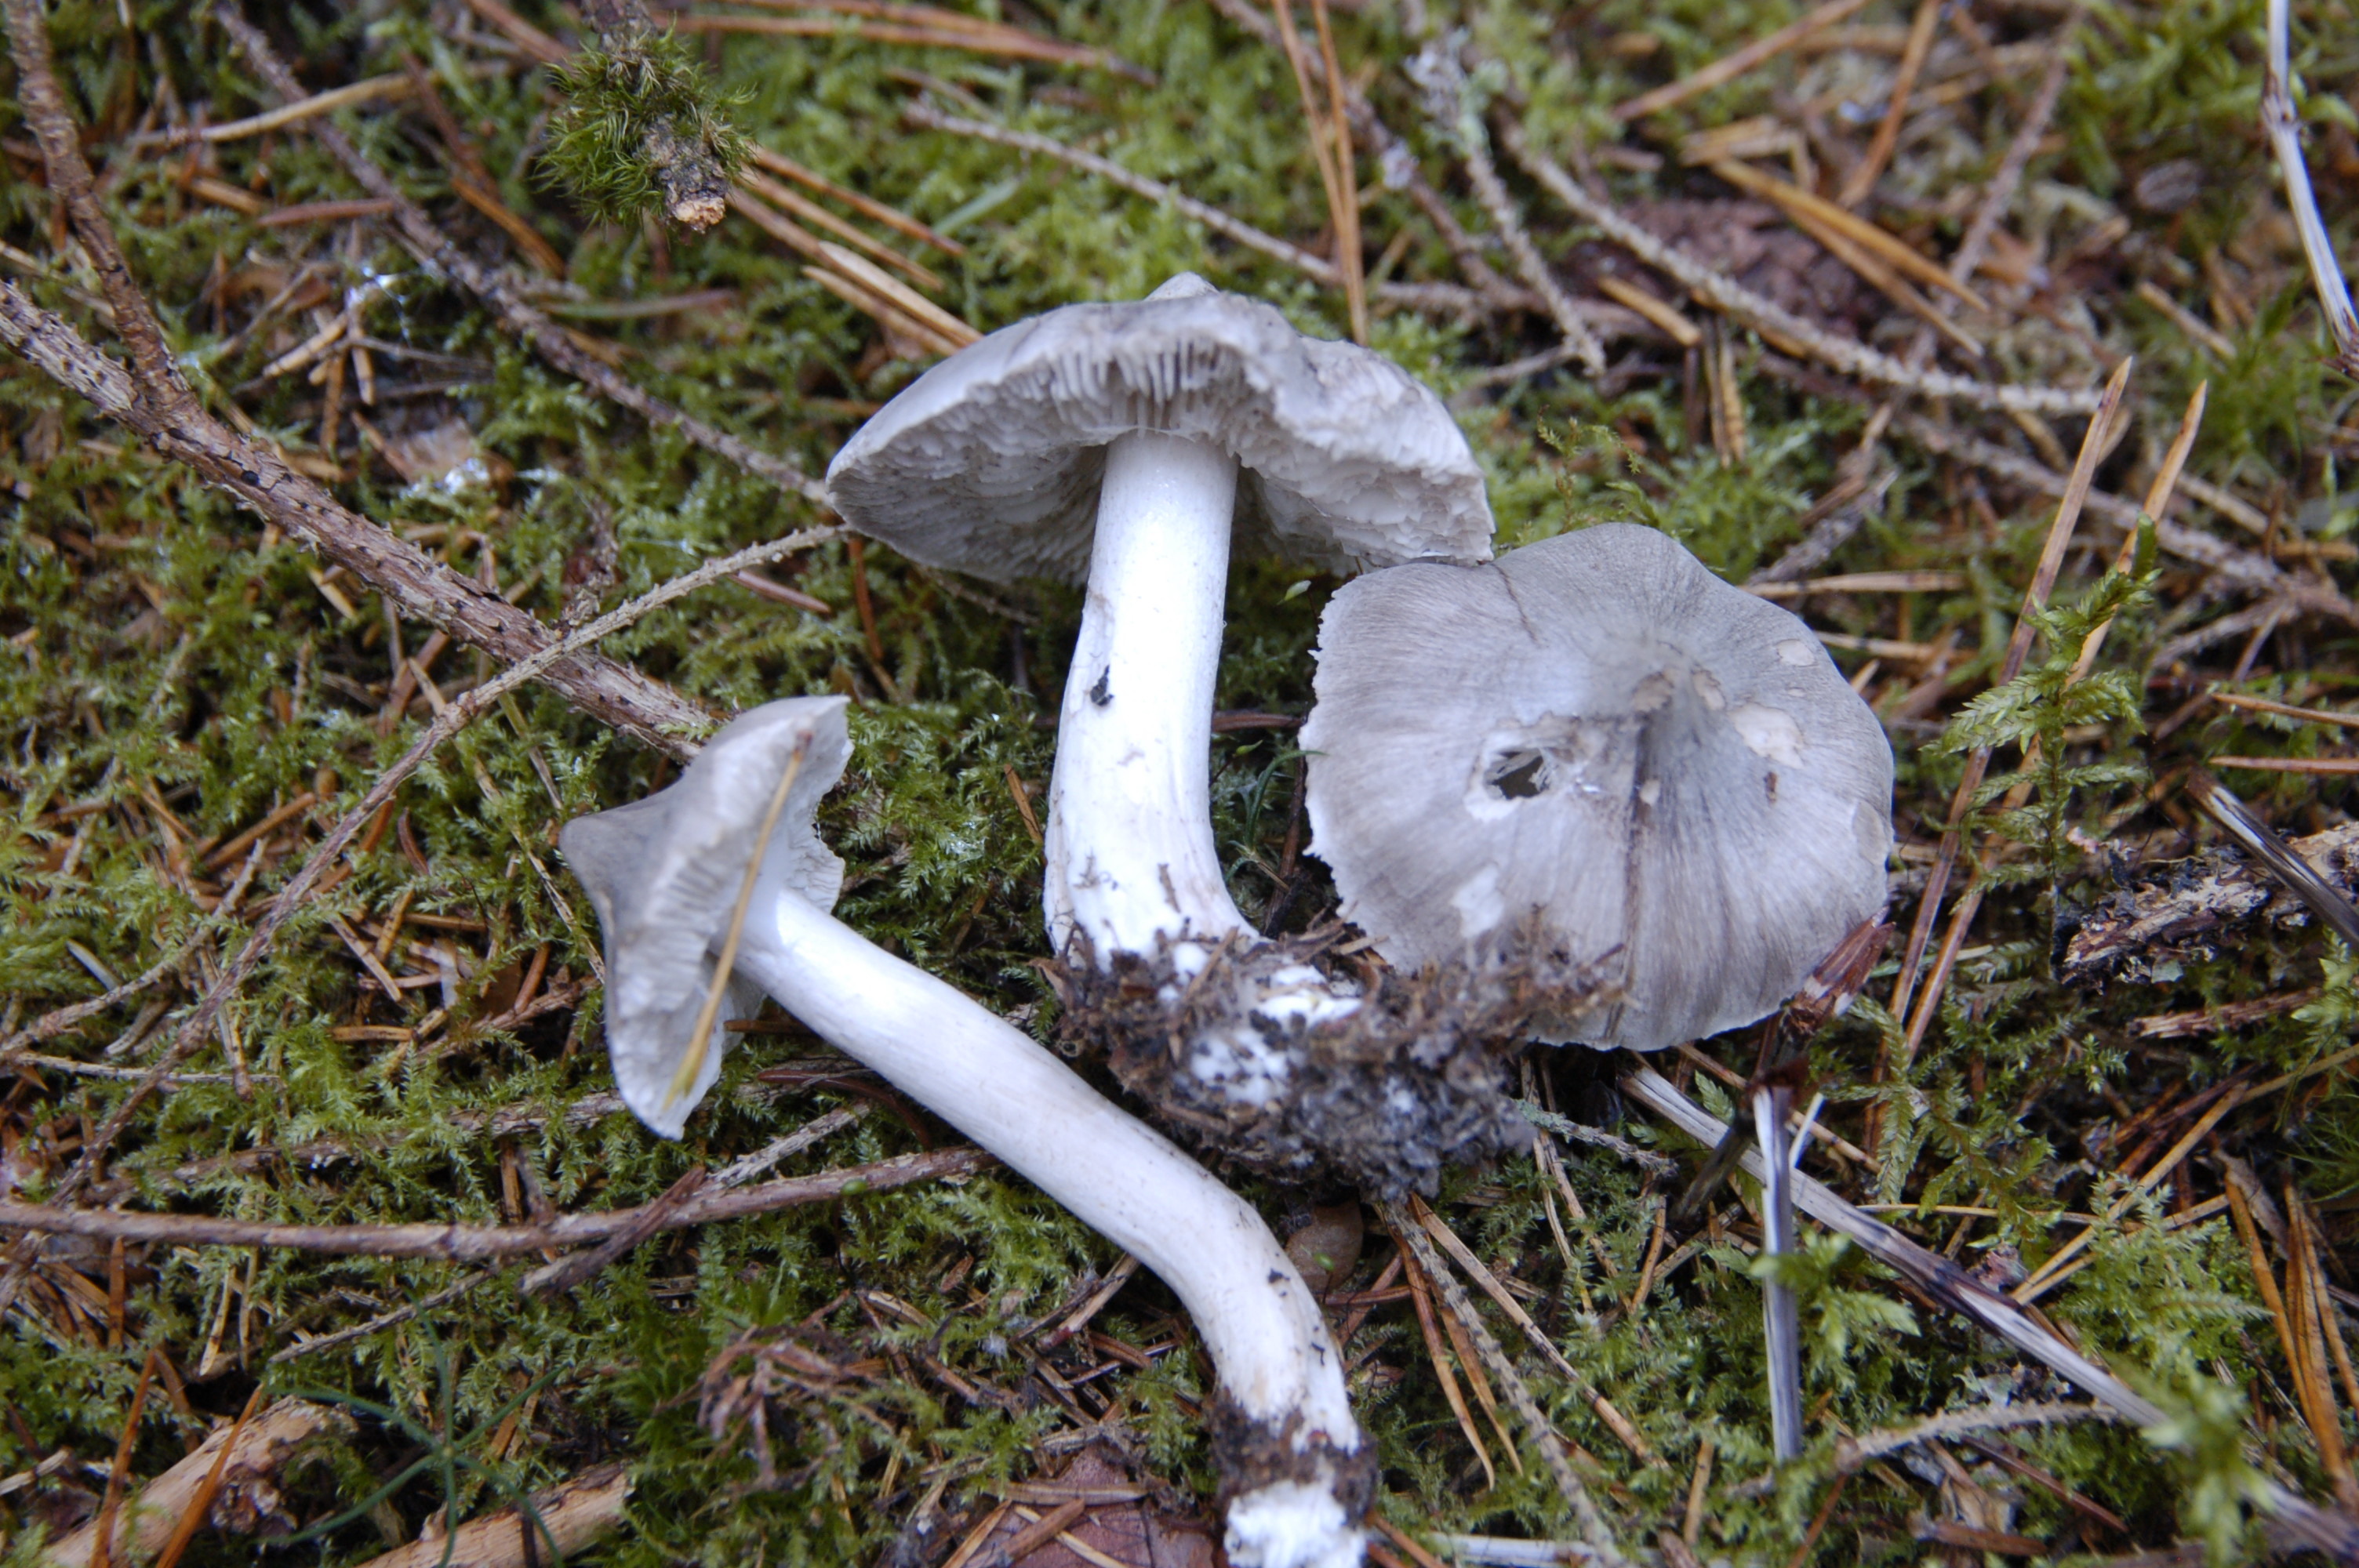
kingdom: Fungi
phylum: Basidiomycota
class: Agaricomycetes
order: Agaricales
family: Tricholomataceae
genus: Tricholoma
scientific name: Tricholoma virgatum
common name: Ashen knight
